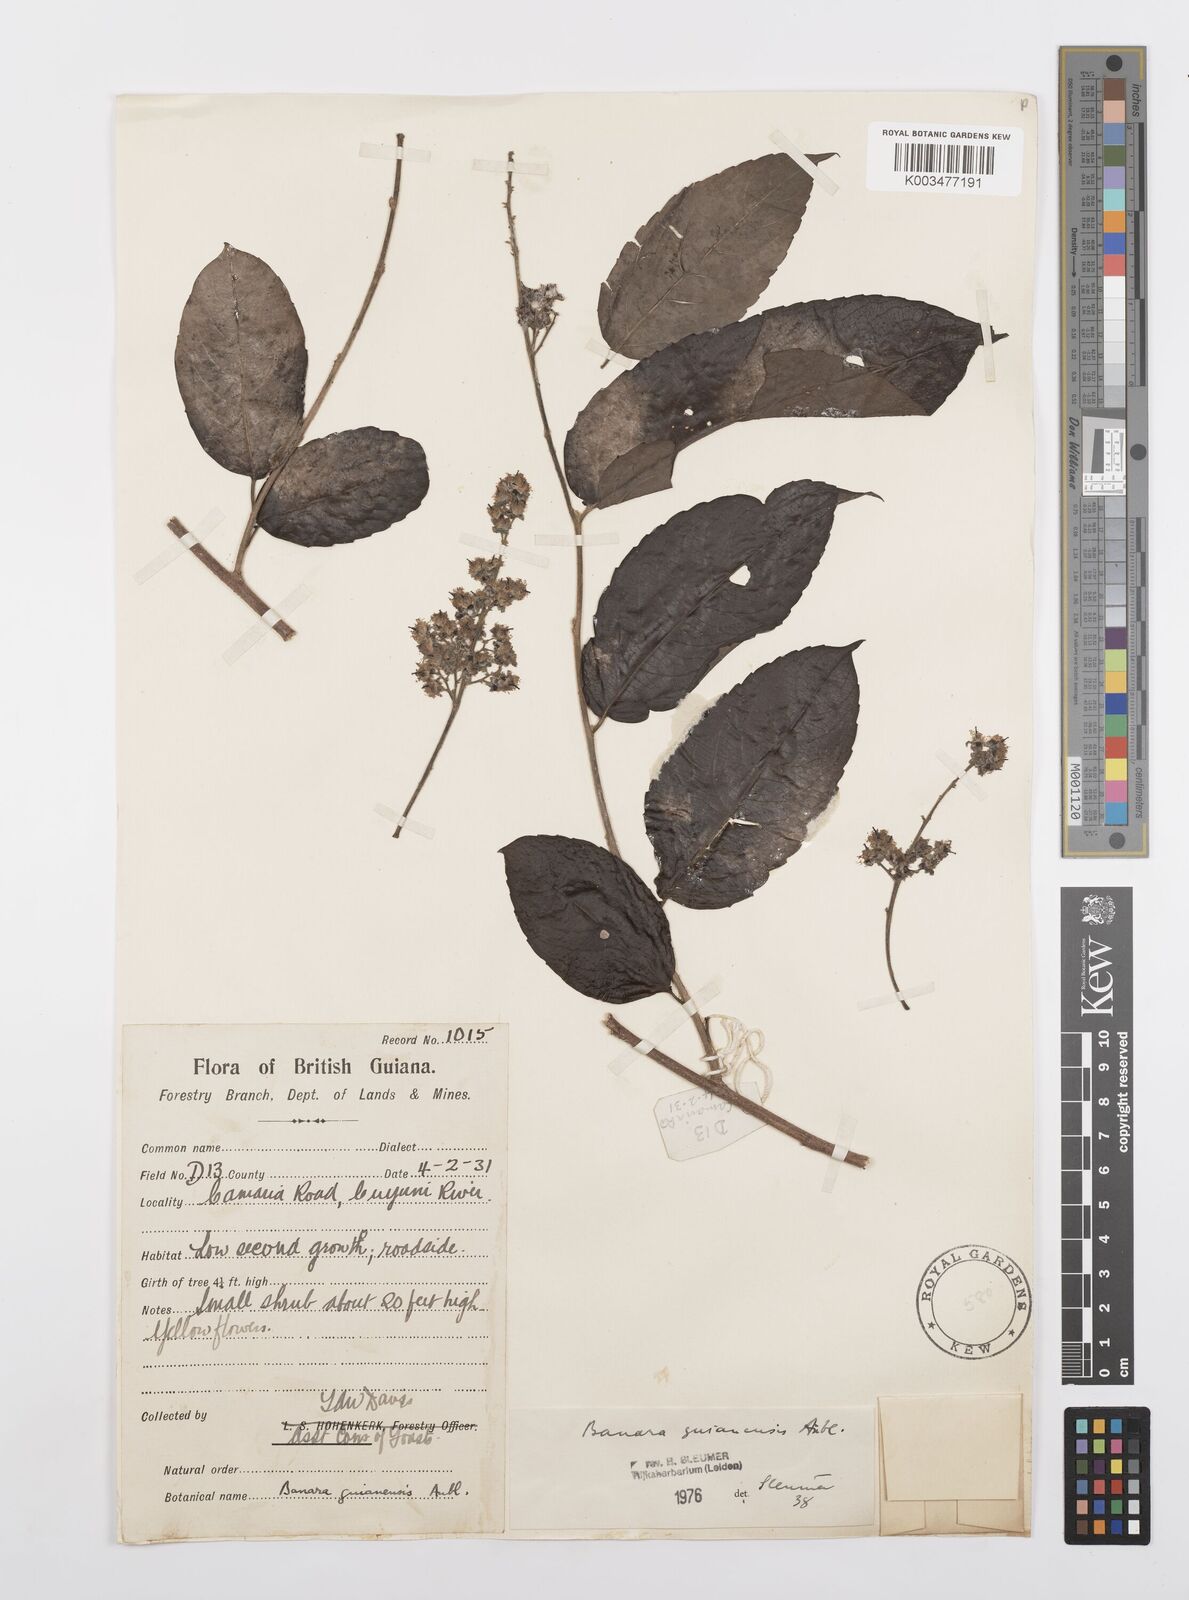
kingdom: Plantae
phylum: Tracheophyta
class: Magnoliopsida
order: Malpighiales
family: Salicaceae
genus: Banara
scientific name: Banara guianensis
